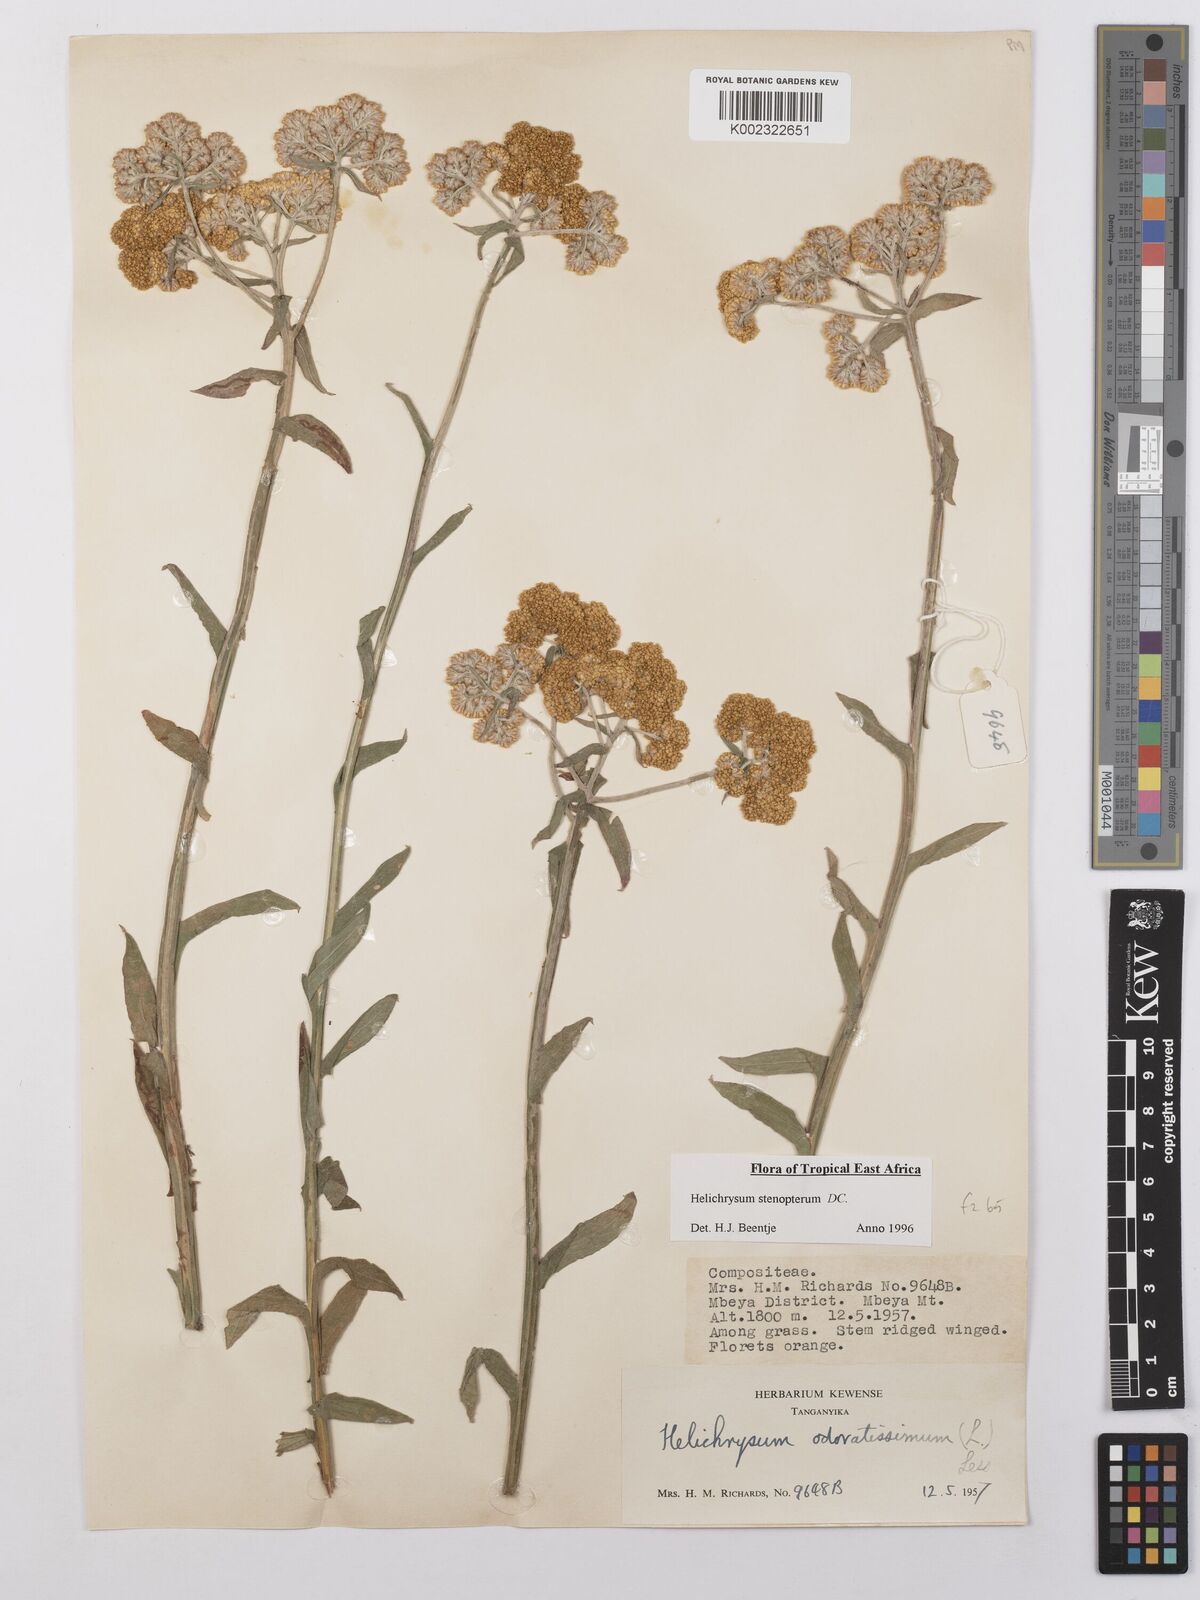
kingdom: Plantae
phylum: Tracheophyta
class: Magnoliopsida
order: Asterales
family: Asteraceae
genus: Helichrysum
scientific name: Helichrysum stenopterum
